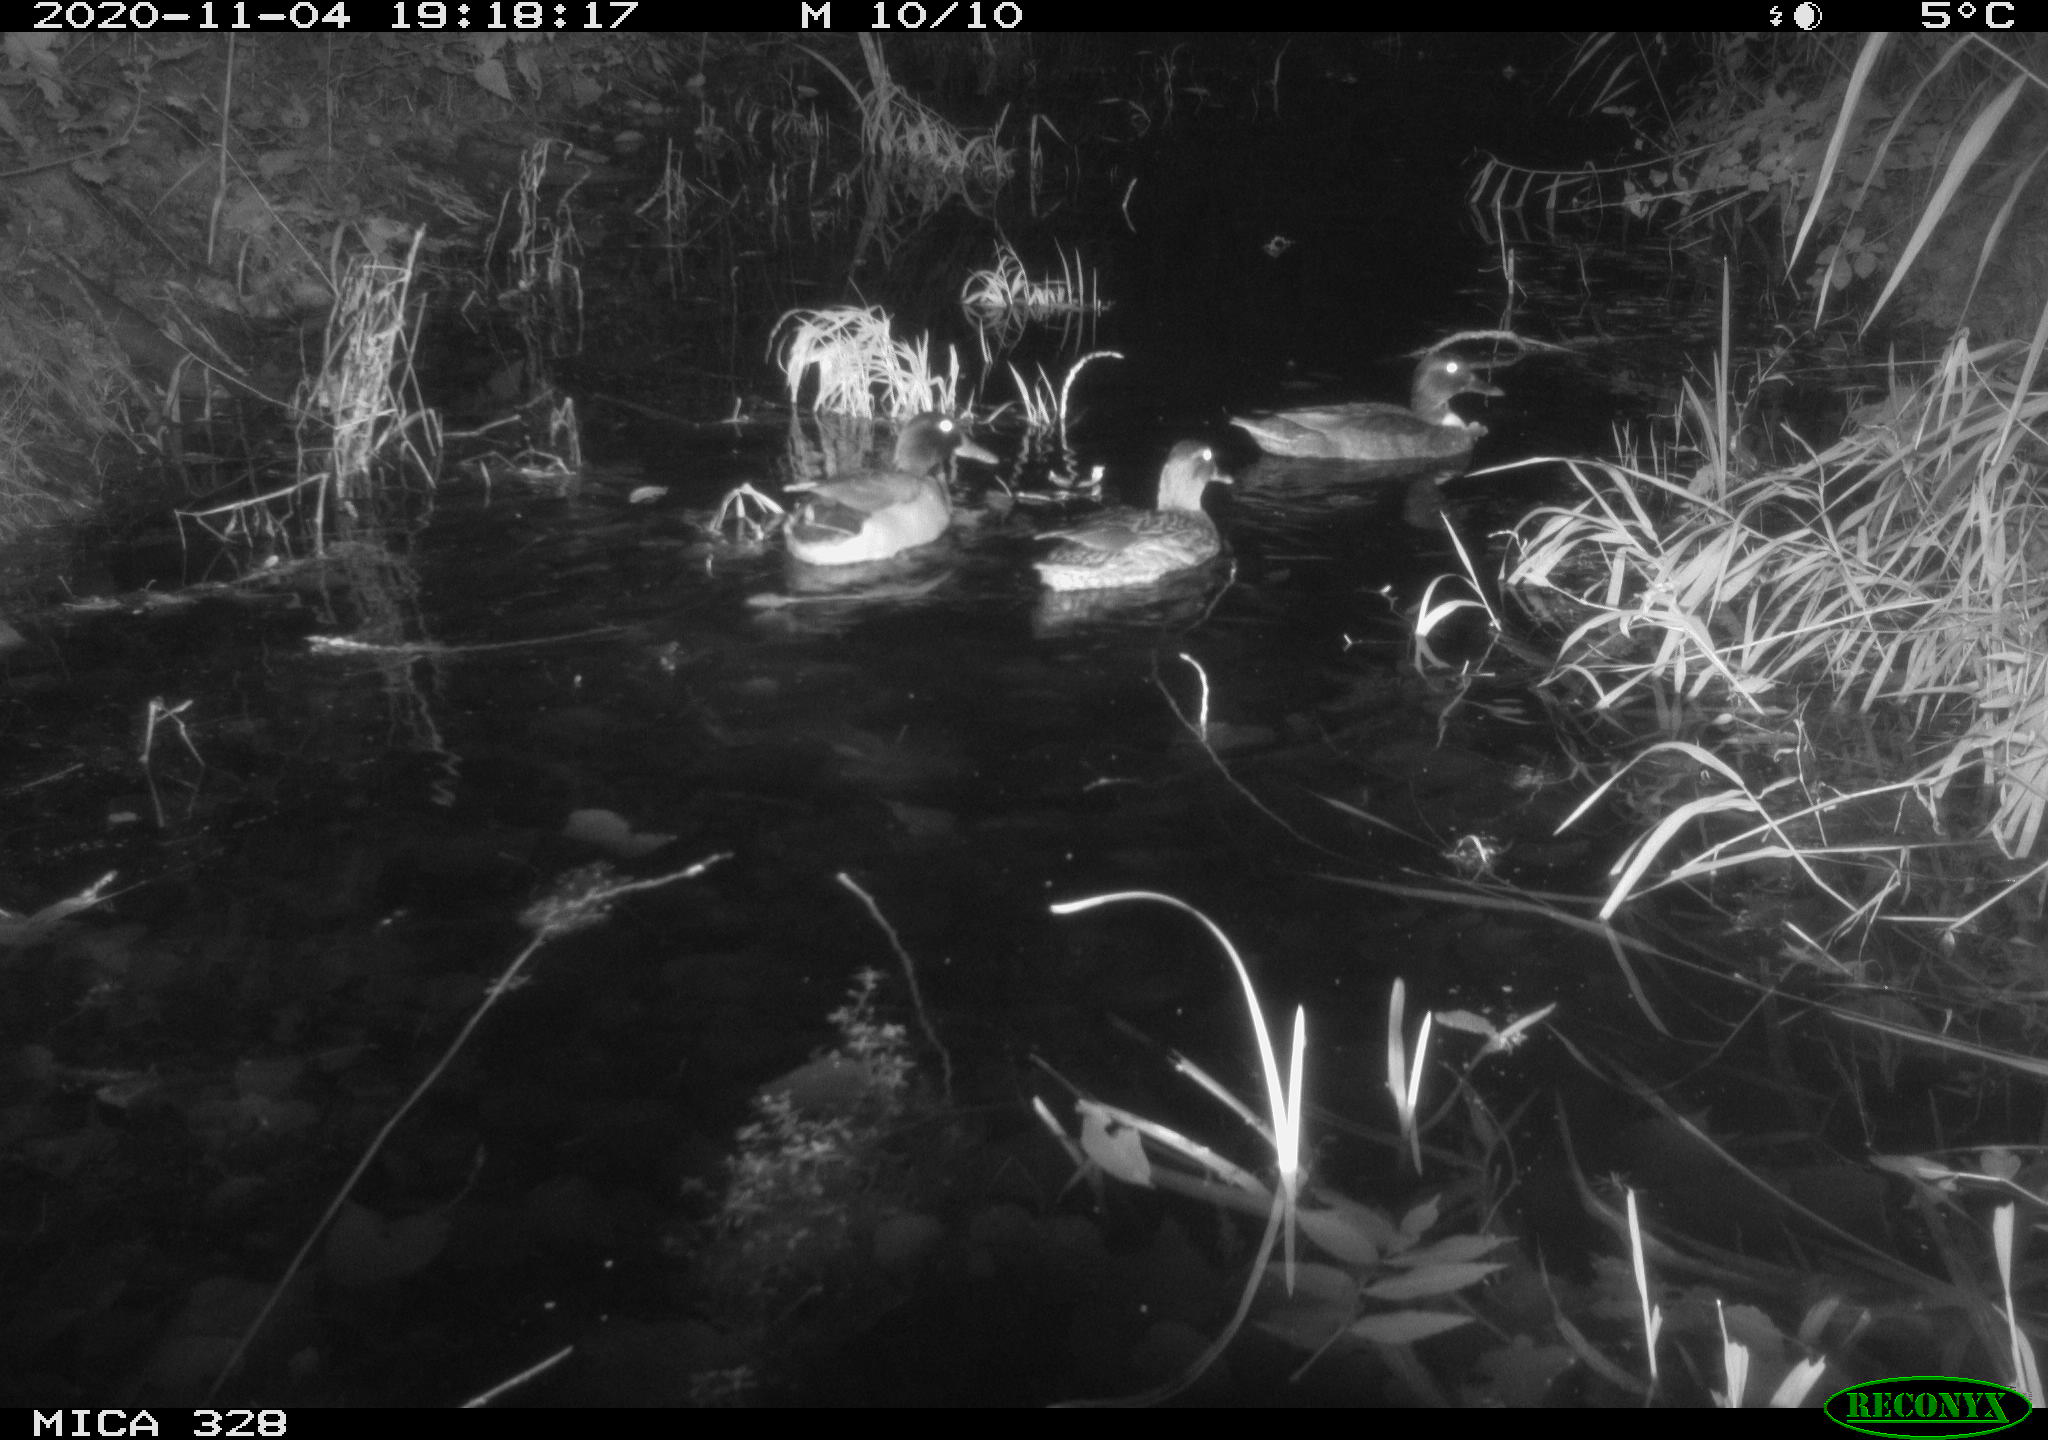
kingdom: Animalia
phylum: Chordata
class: Aves
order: Anseriformes
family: Anatidae
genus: Anas
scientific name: Anas platyrhynchos
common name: Mallard
